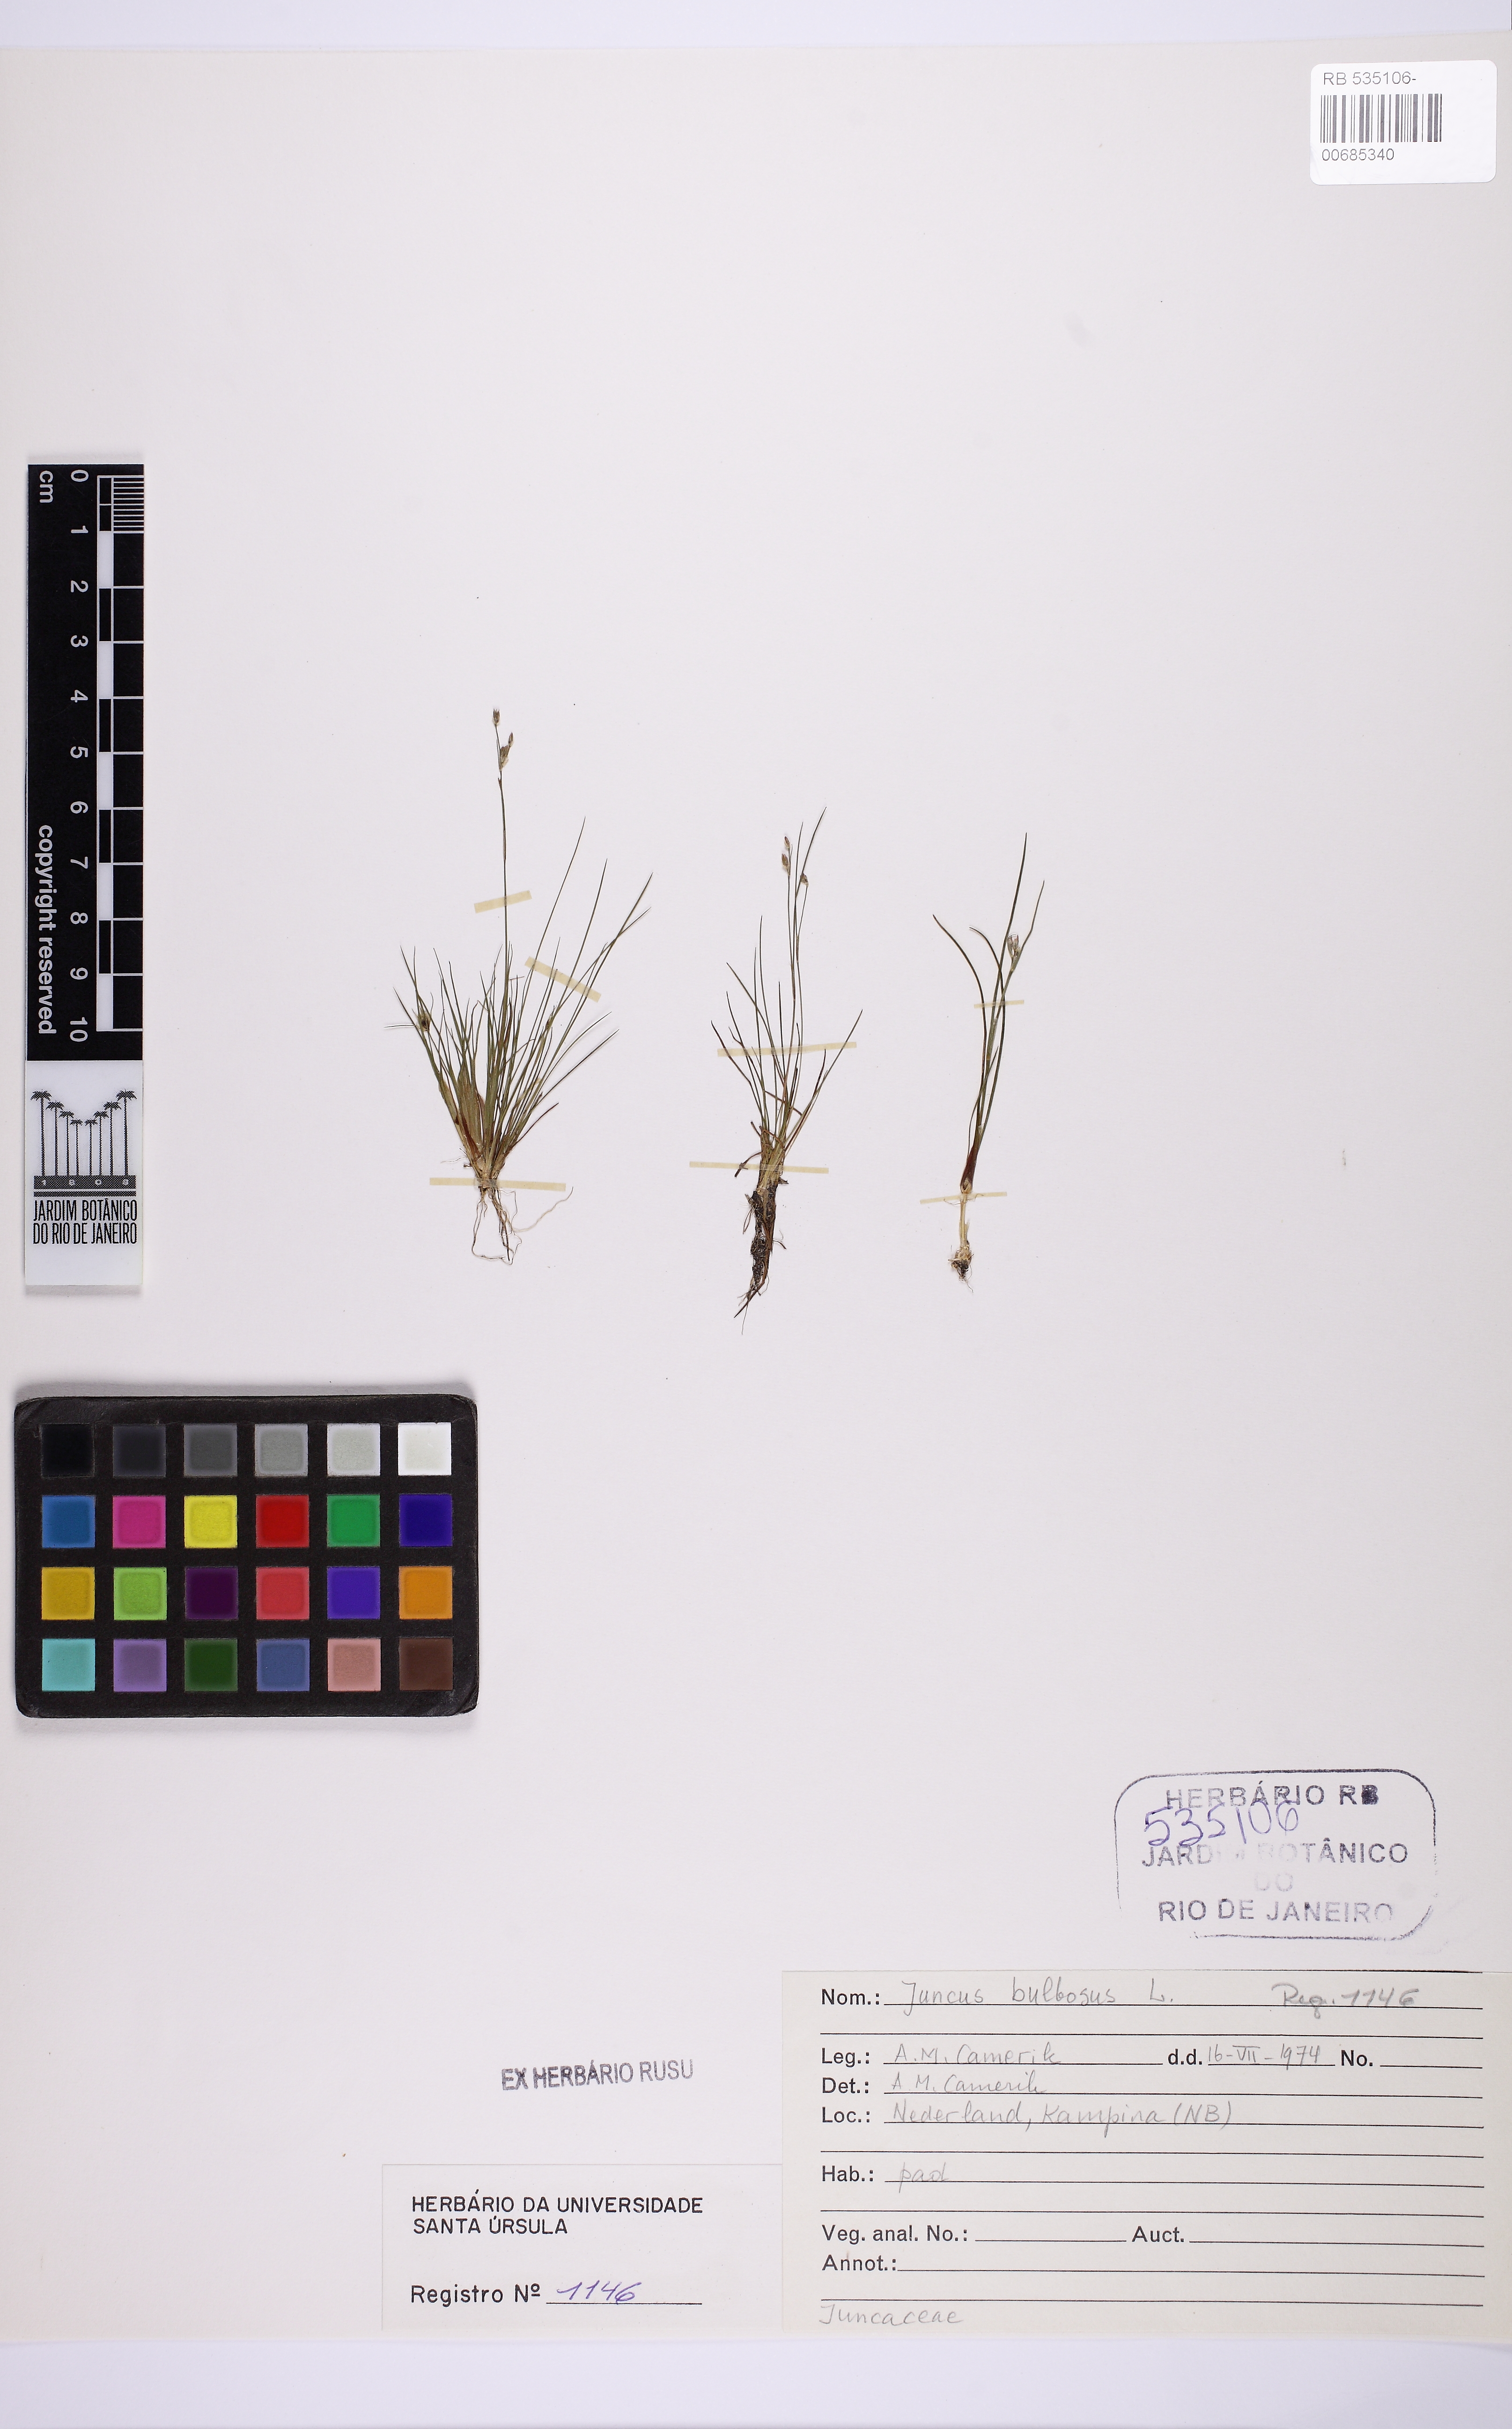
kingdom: Plantae
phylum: Tracheophyta
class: Liliopsida
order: Poales
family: Juncaceae
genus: Juncus
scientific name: Juncus bulbosus
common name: Bulbous rush
